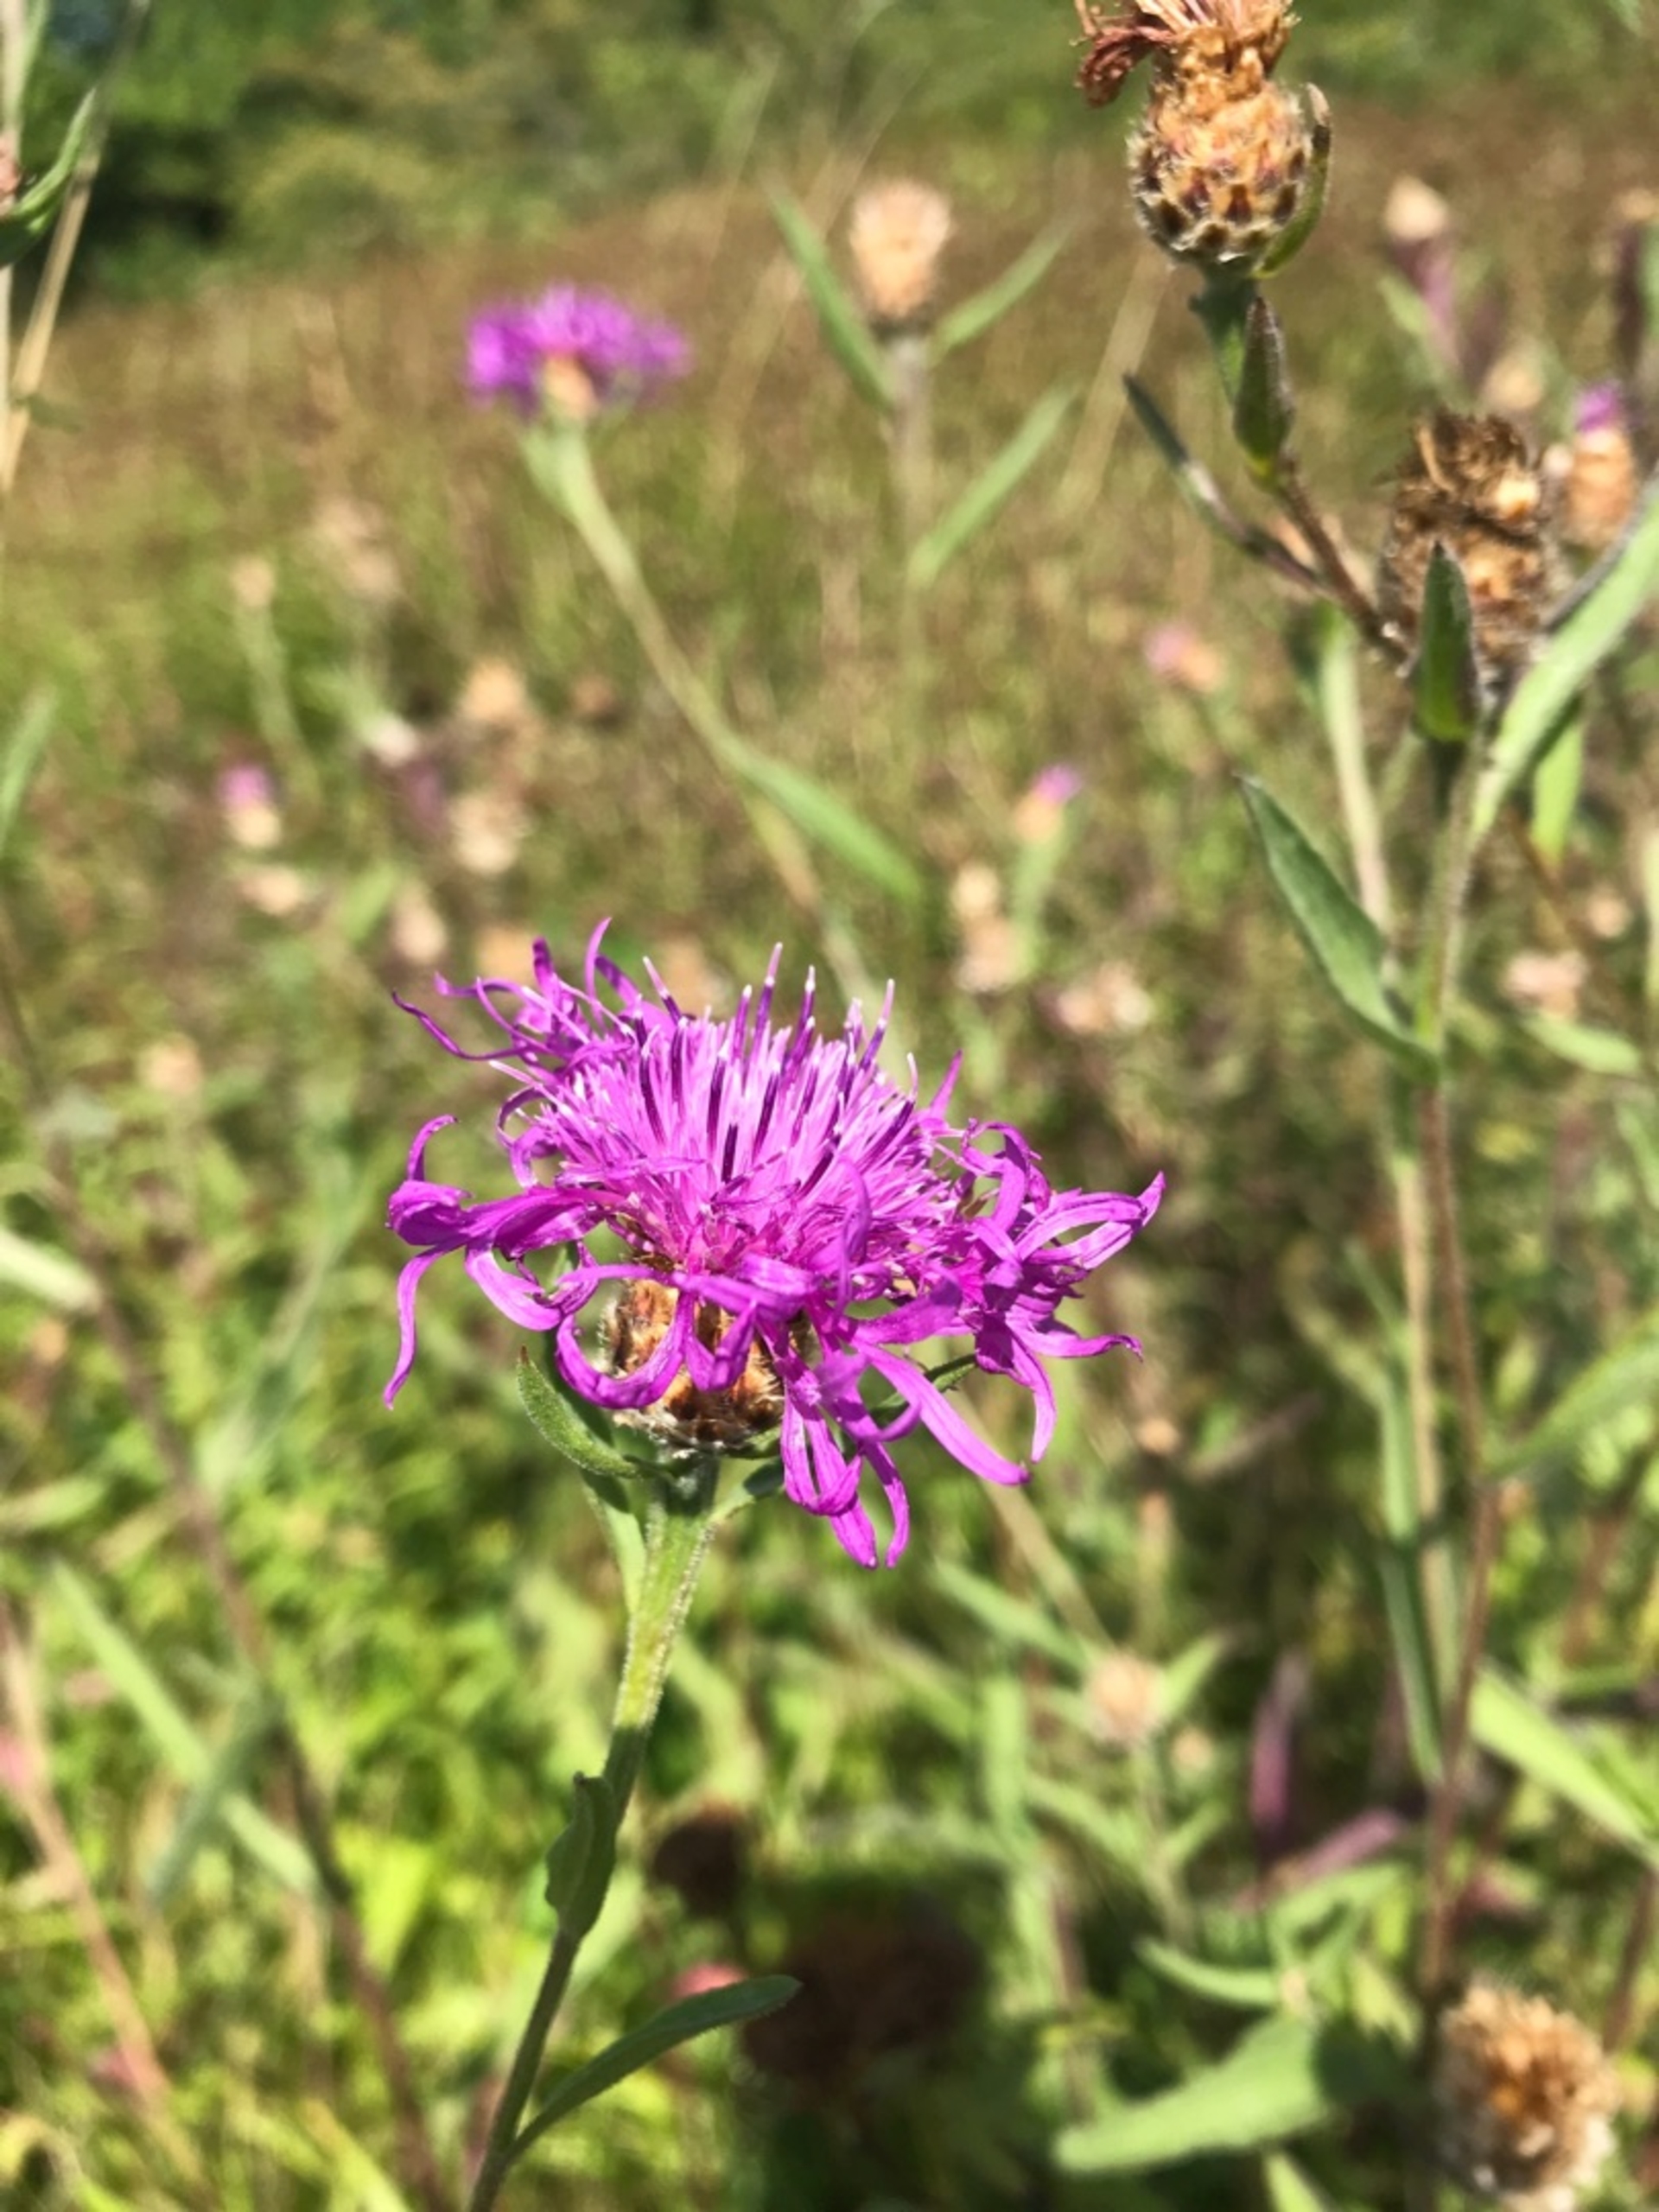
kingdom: Plantae
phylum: Tracheophyta
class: Magnoliopsida
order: Asterales
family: Asteraceae
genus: Centaurea
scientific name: Centaurea jacea
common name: Almindelig knopurt
